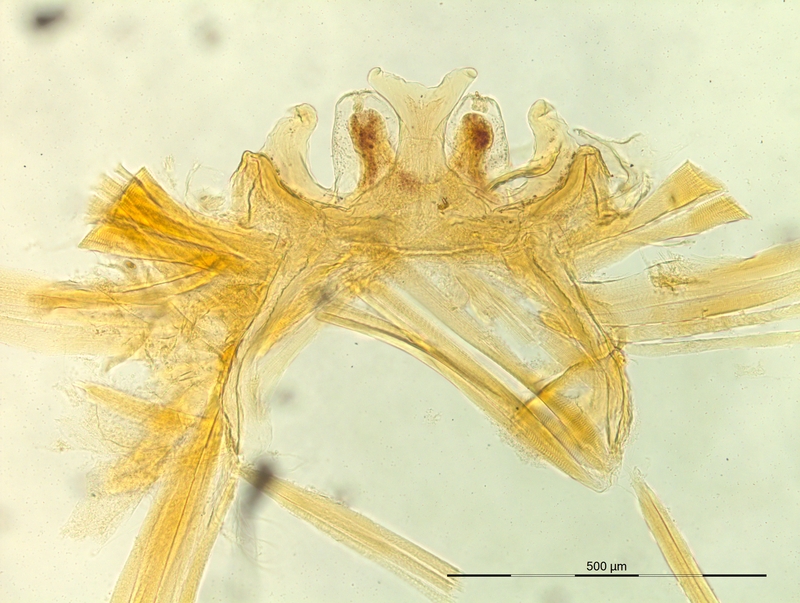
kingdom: Animalia
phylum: Arthropoda
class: Diplopoda
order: Chordeumatida
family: Craspedosomatidae
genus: Polymicrodon
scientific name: Polymicrodon polydesmoides
